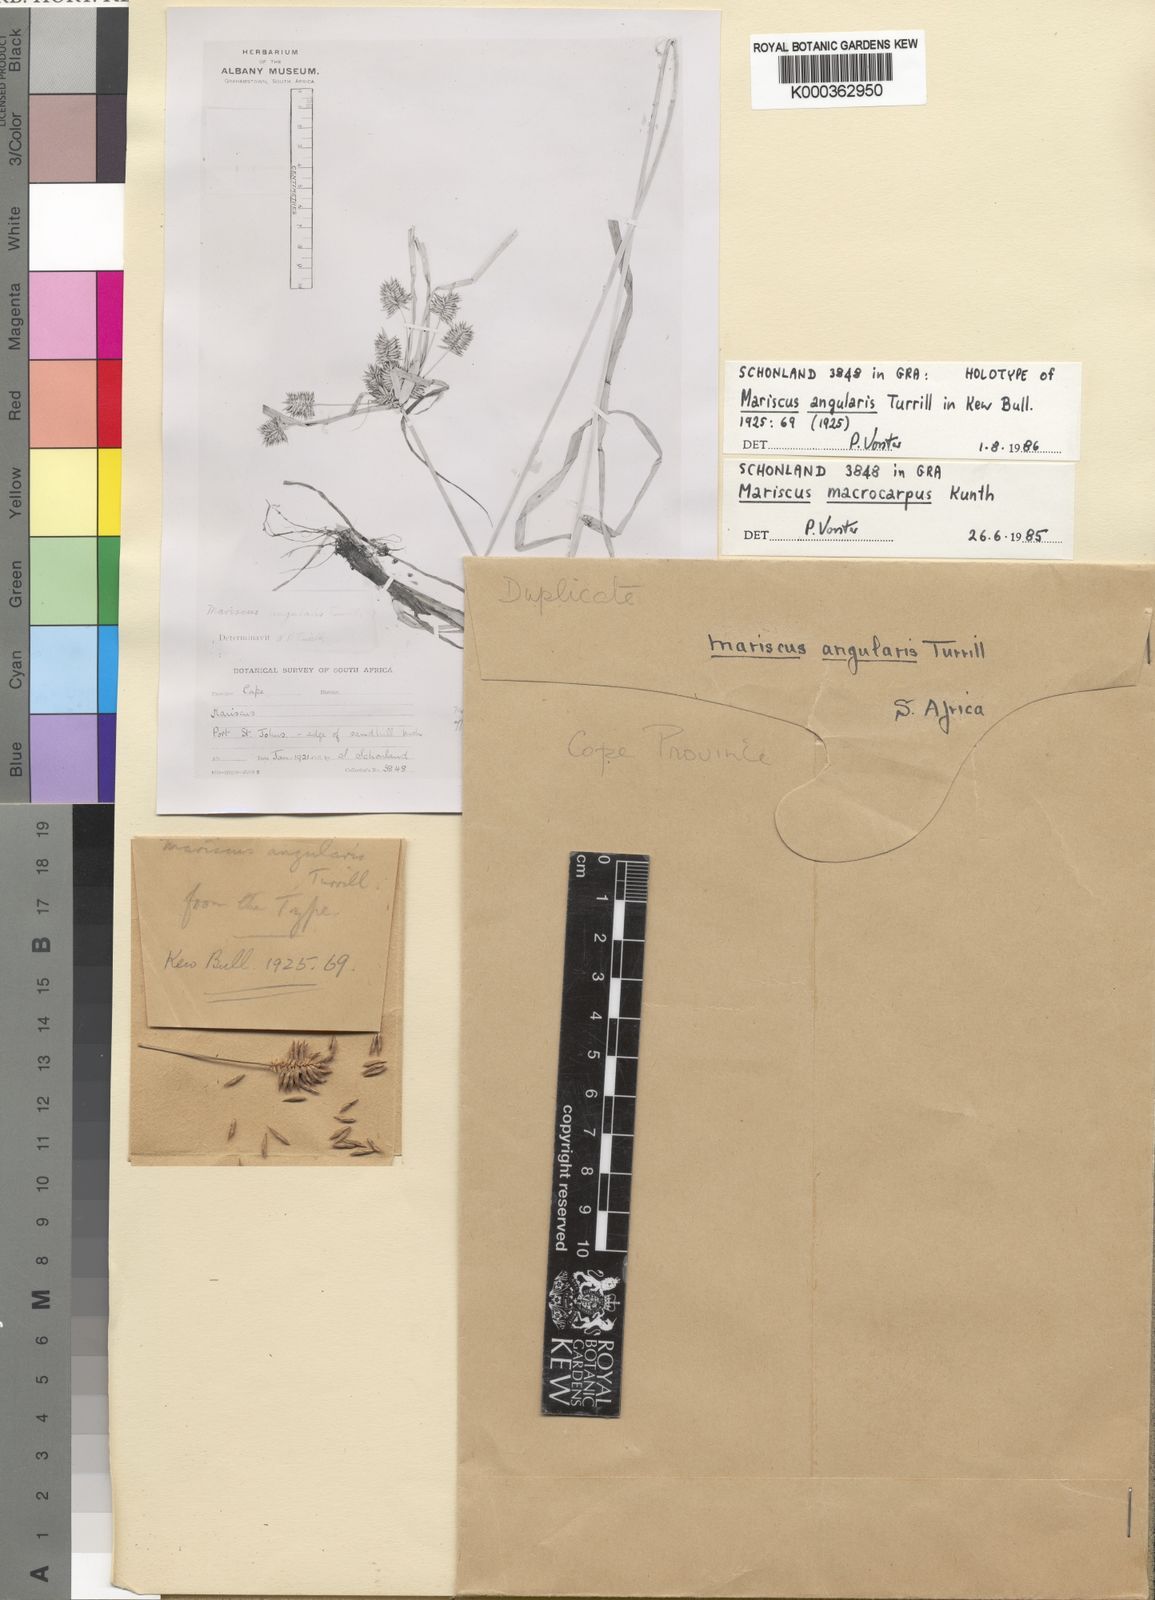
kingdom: Plantae
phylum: Tracheophyta
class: Liliopsida
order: Poales
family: Cyperaceae
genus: Cyperus
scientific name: Cyperus
